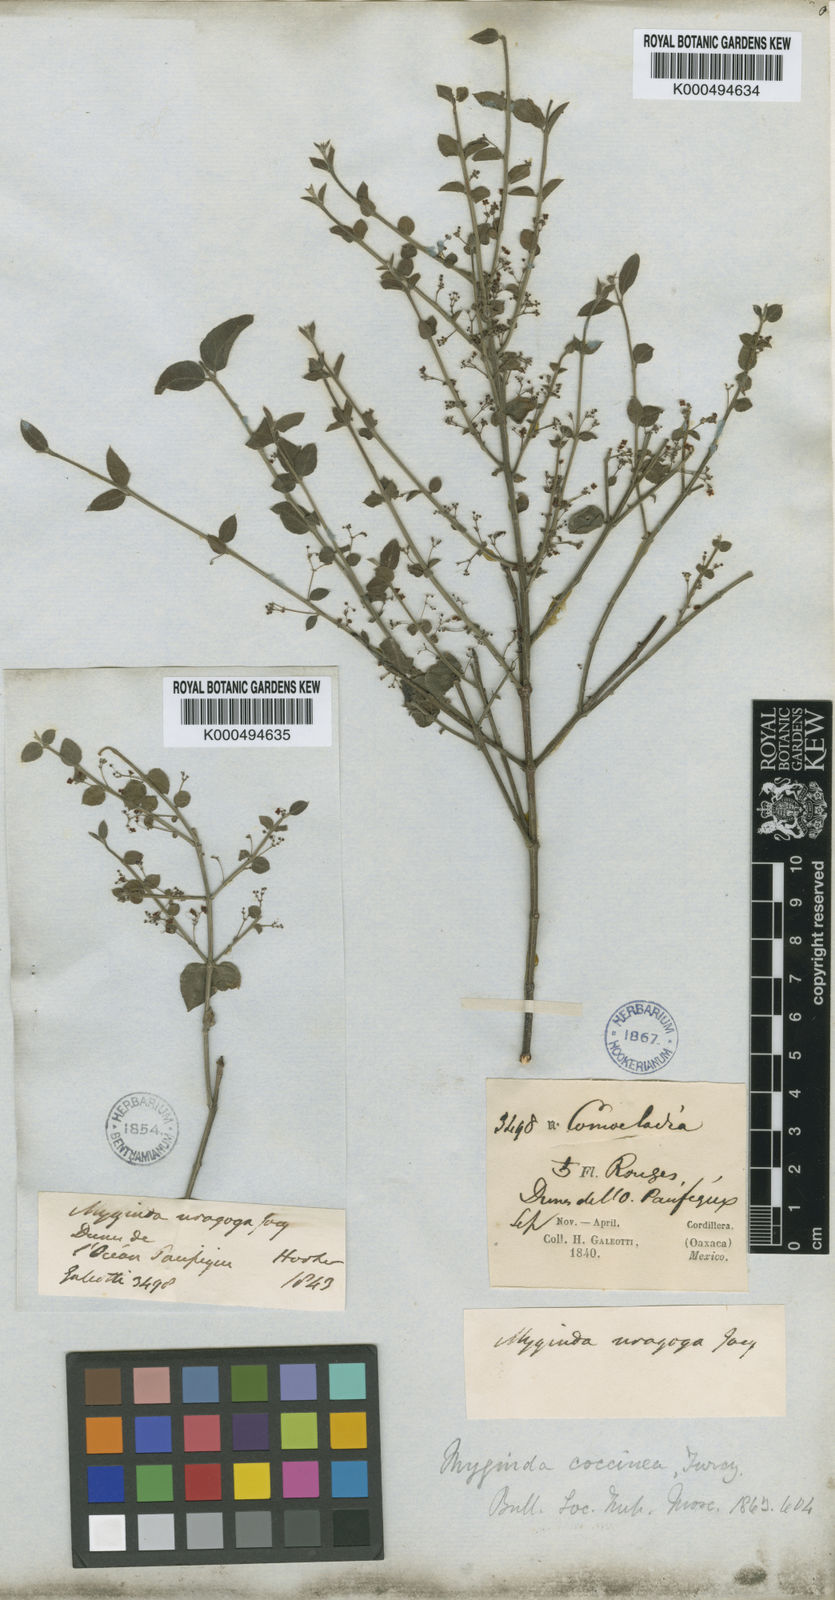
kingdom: Plantae
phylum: Tracheophyta
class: Magnoliopsida
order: Celastrales
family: Celastraceae
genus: Crossopetalum
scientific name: Crossopetalum uragoga
